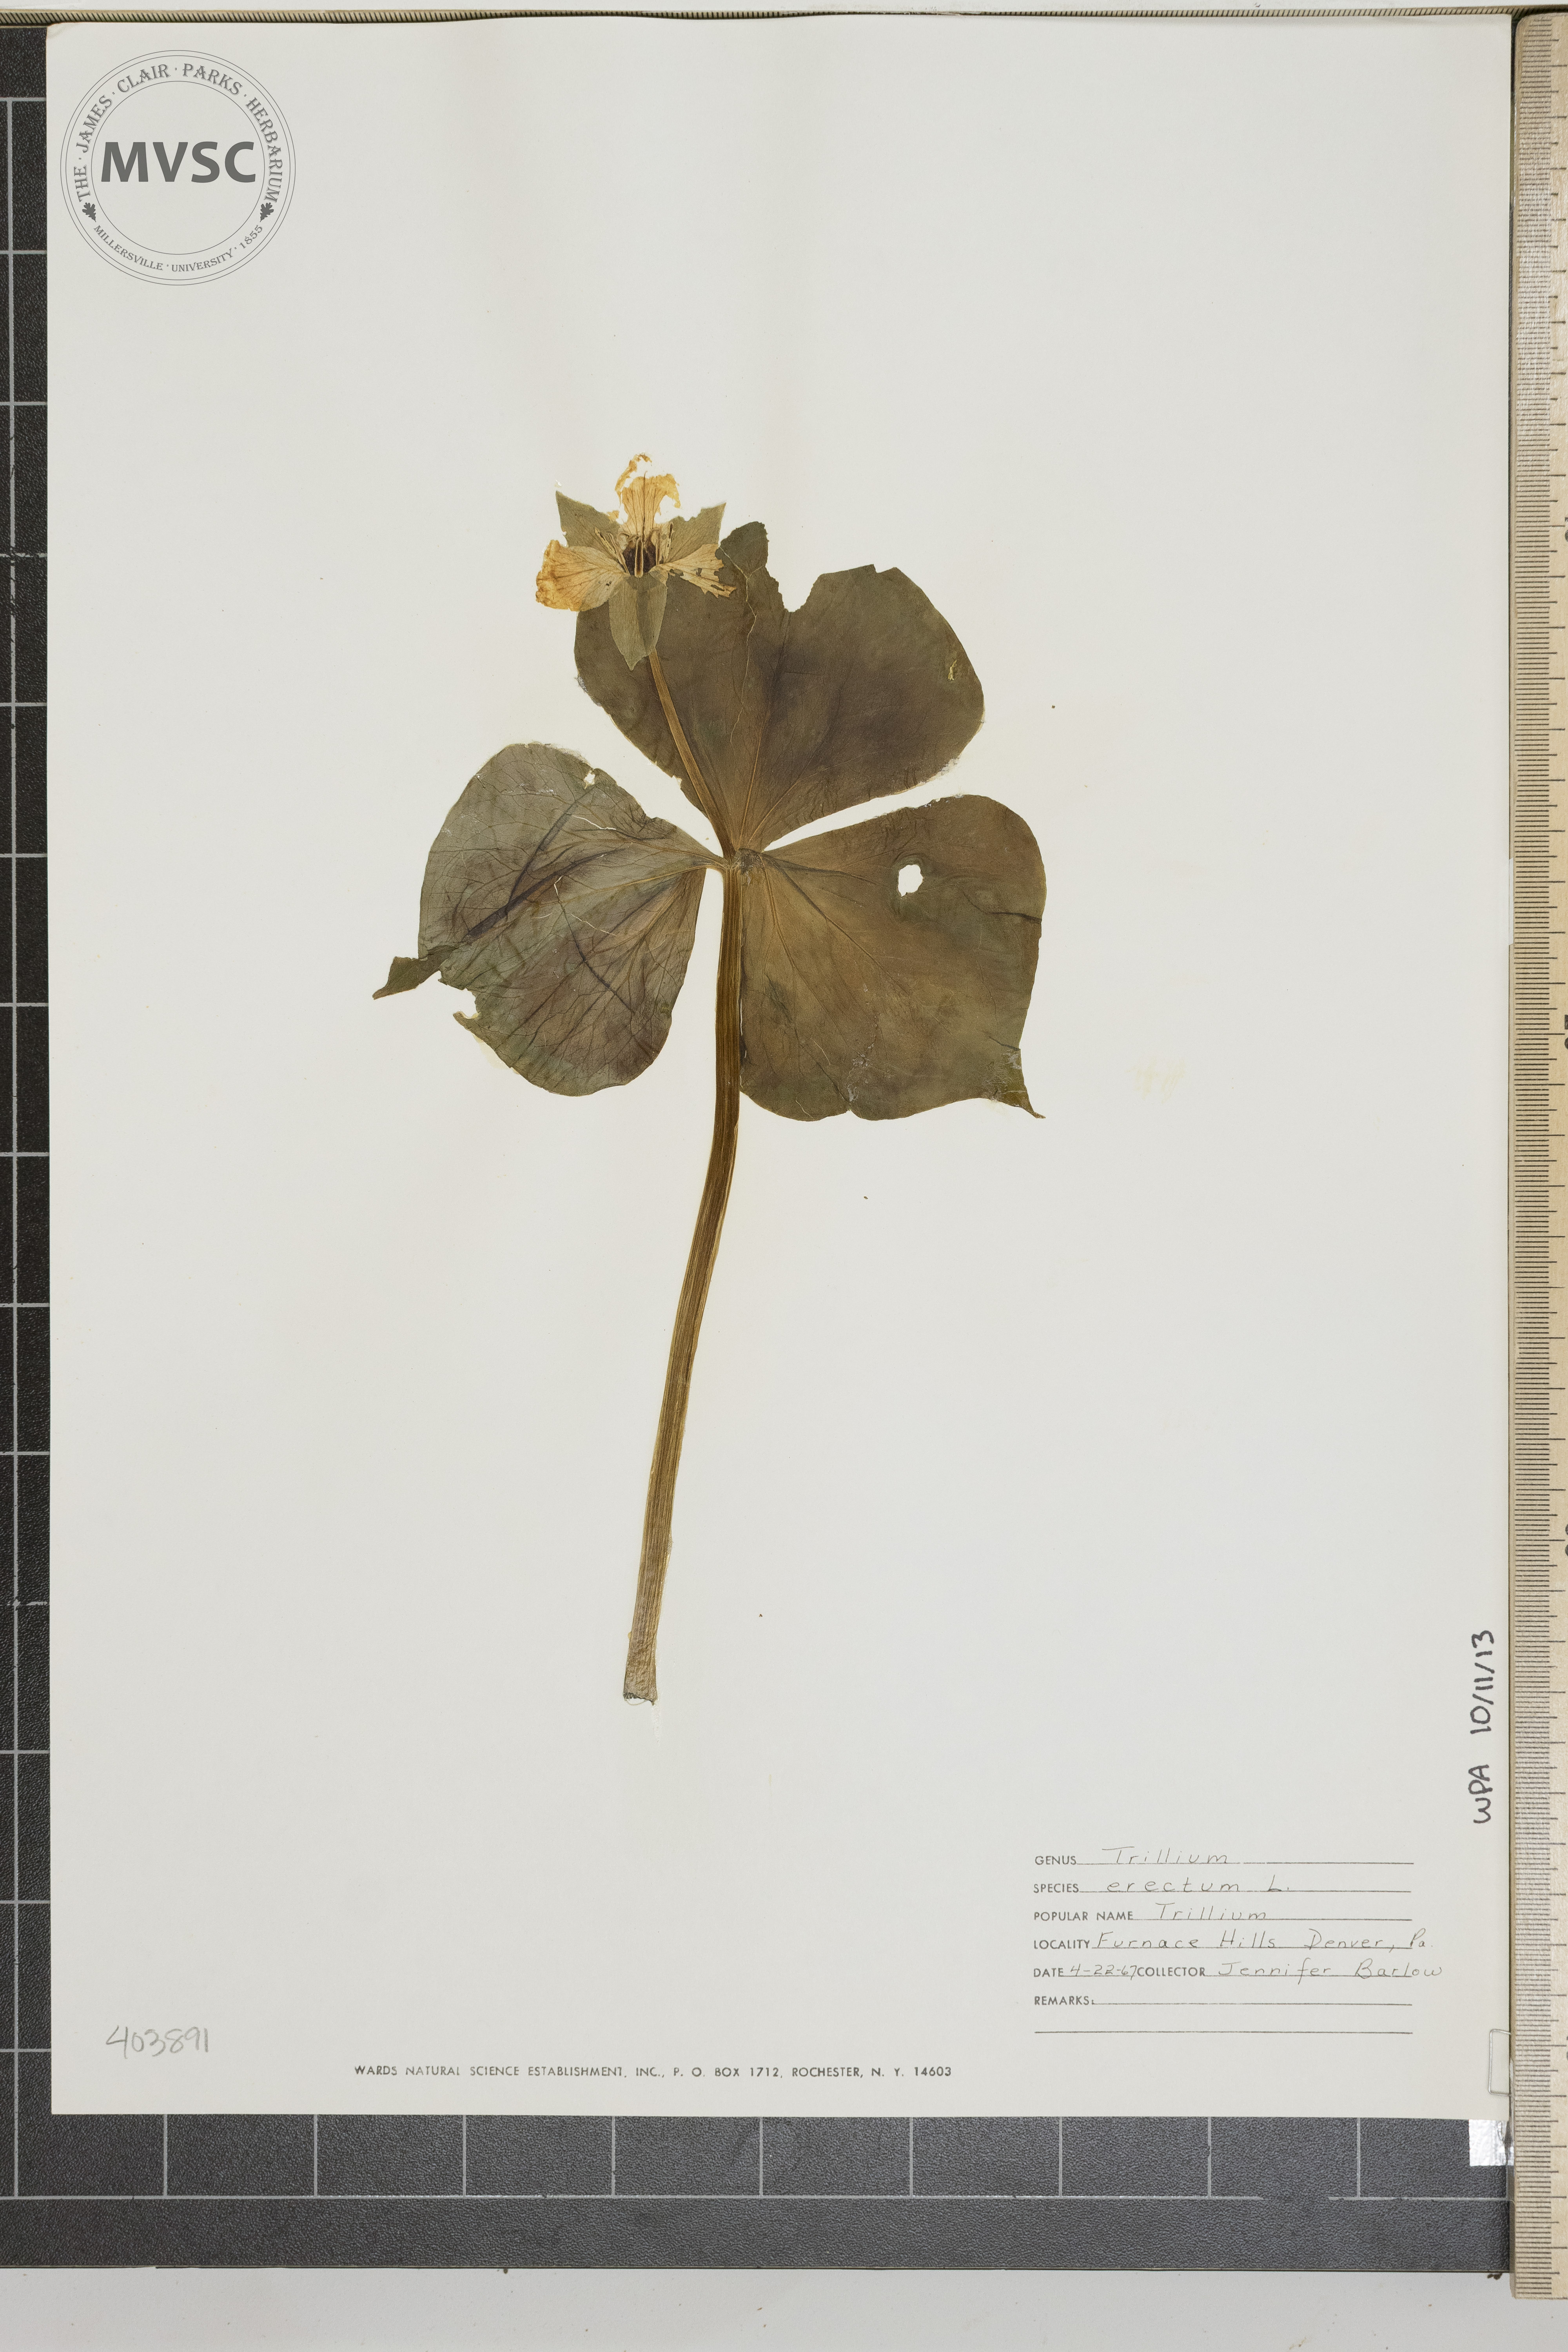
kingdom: Plantae
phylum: Tracheophyta
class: Liliopsida
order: Liliales
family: Melanthiaceae
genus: Trillium
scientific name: Trillium erectum
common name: Purple trillium
